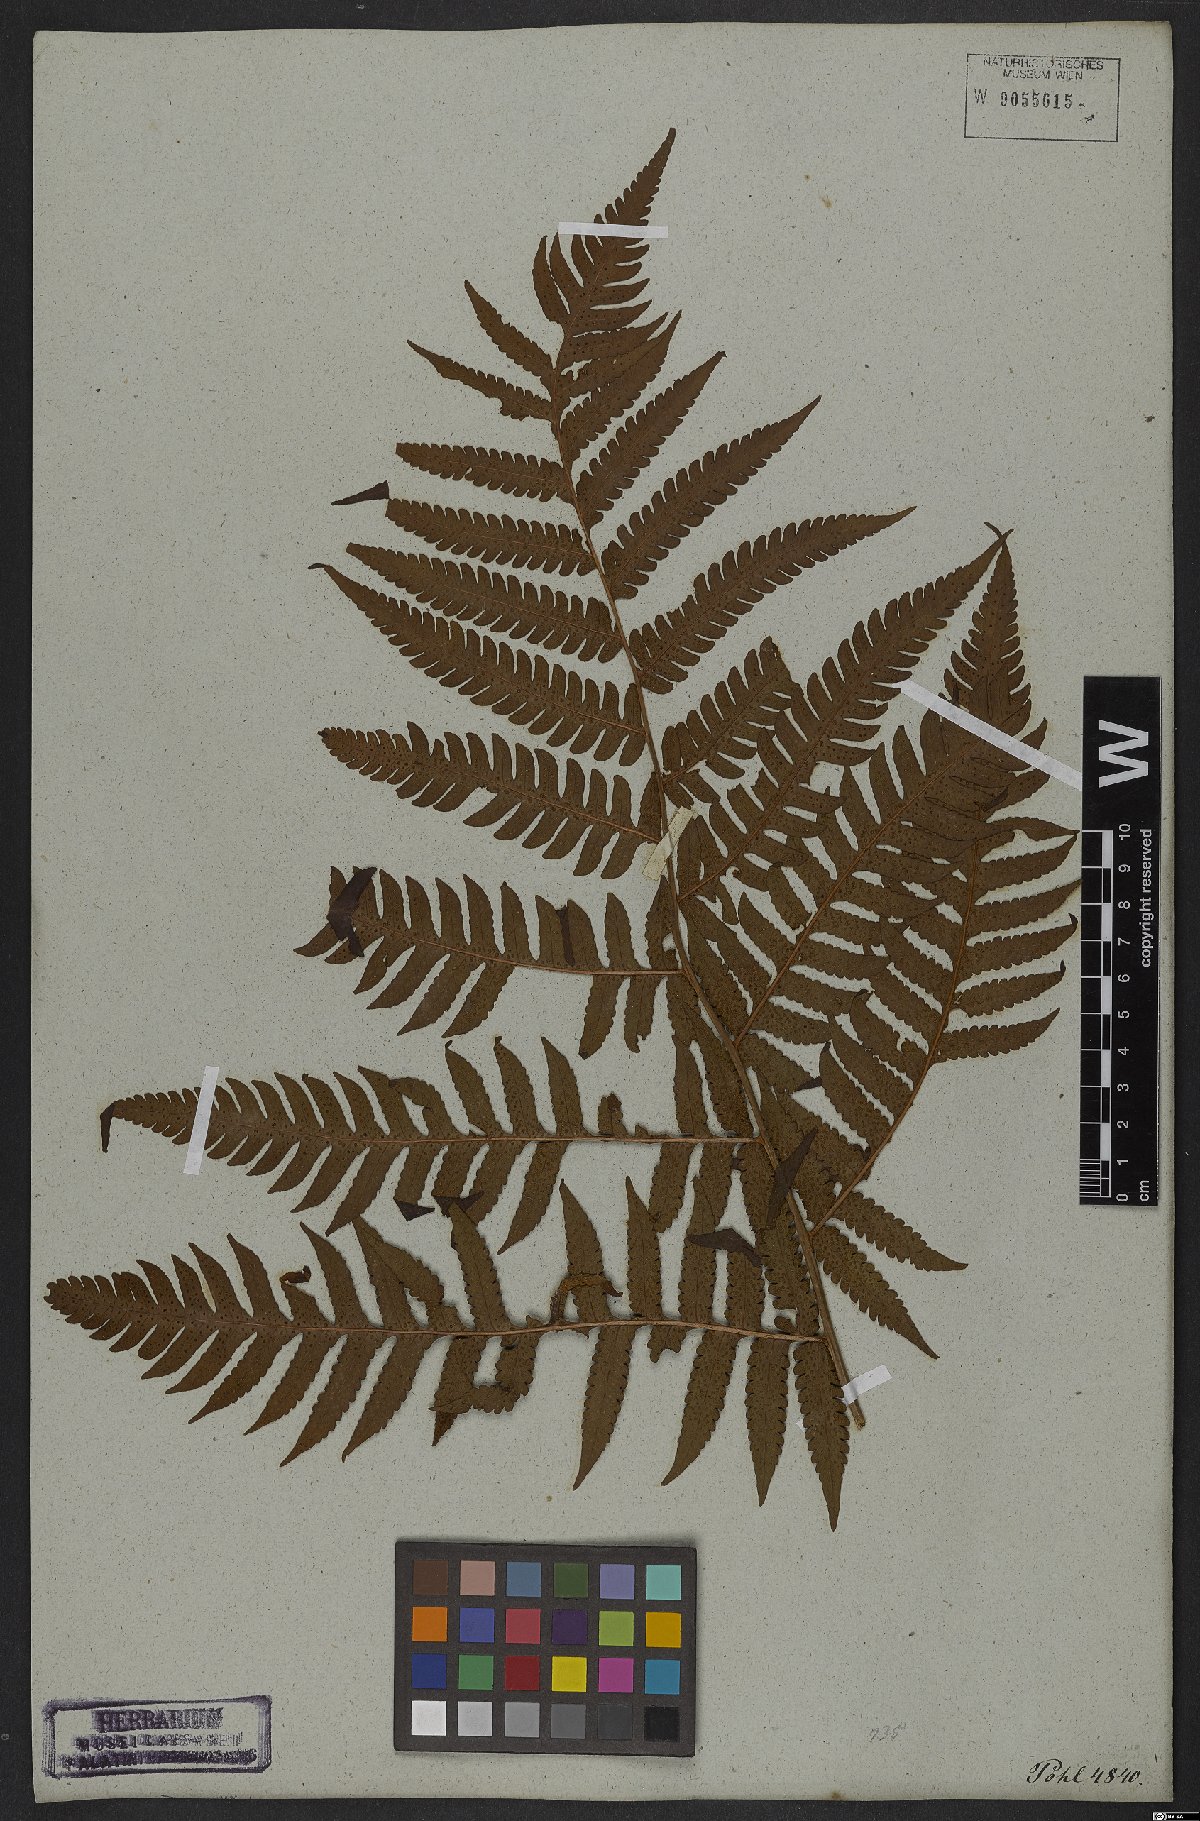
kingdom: Plantae
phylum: Tracheophyta
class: Polypodiopsida
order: Polypodiales
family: Dryopteridaceae
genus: Megalastrum
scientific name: Megalastrum connexum
